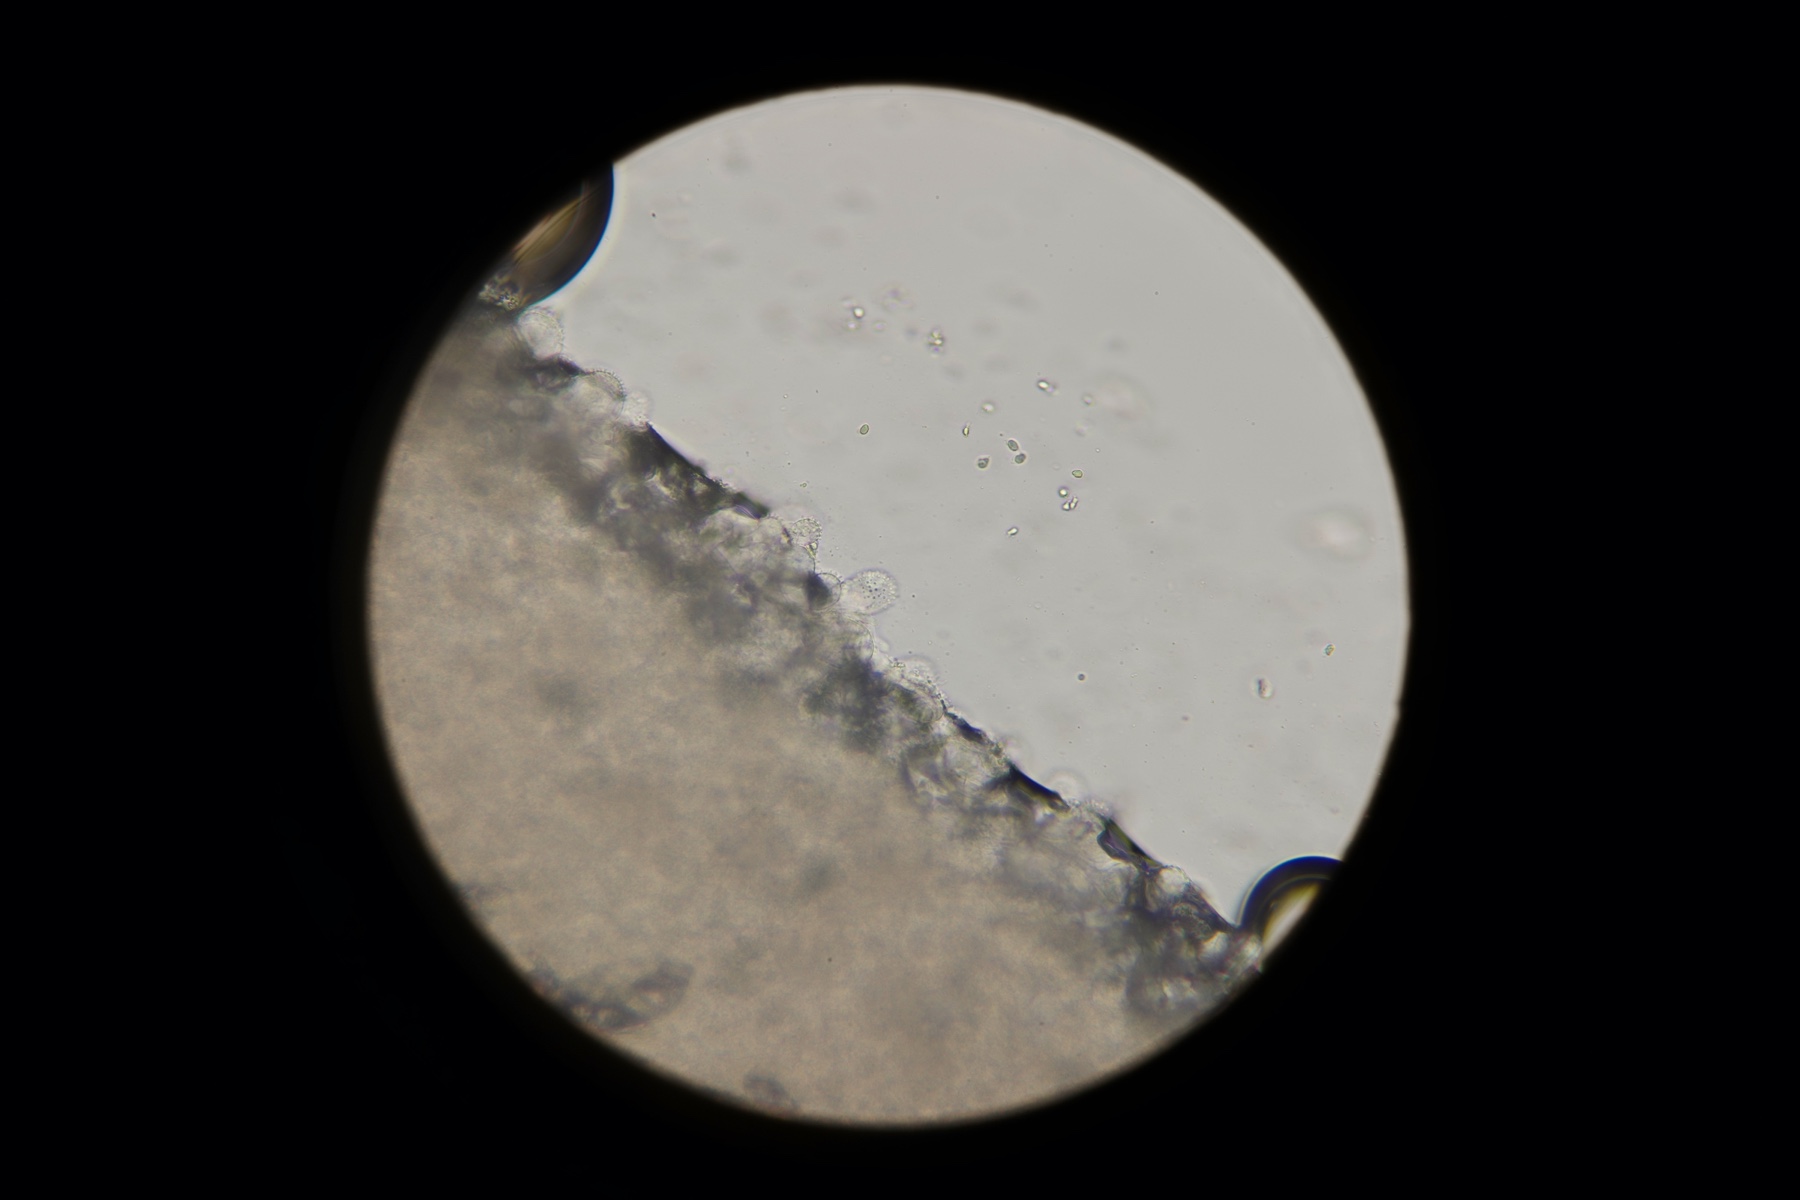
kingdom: Fungi
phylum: Basidiomycota
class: Agaricomycetes
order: Agaricales
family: Mycenaceae
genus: Mycena
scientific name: Mycena filopes
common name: jod-huesvamp
